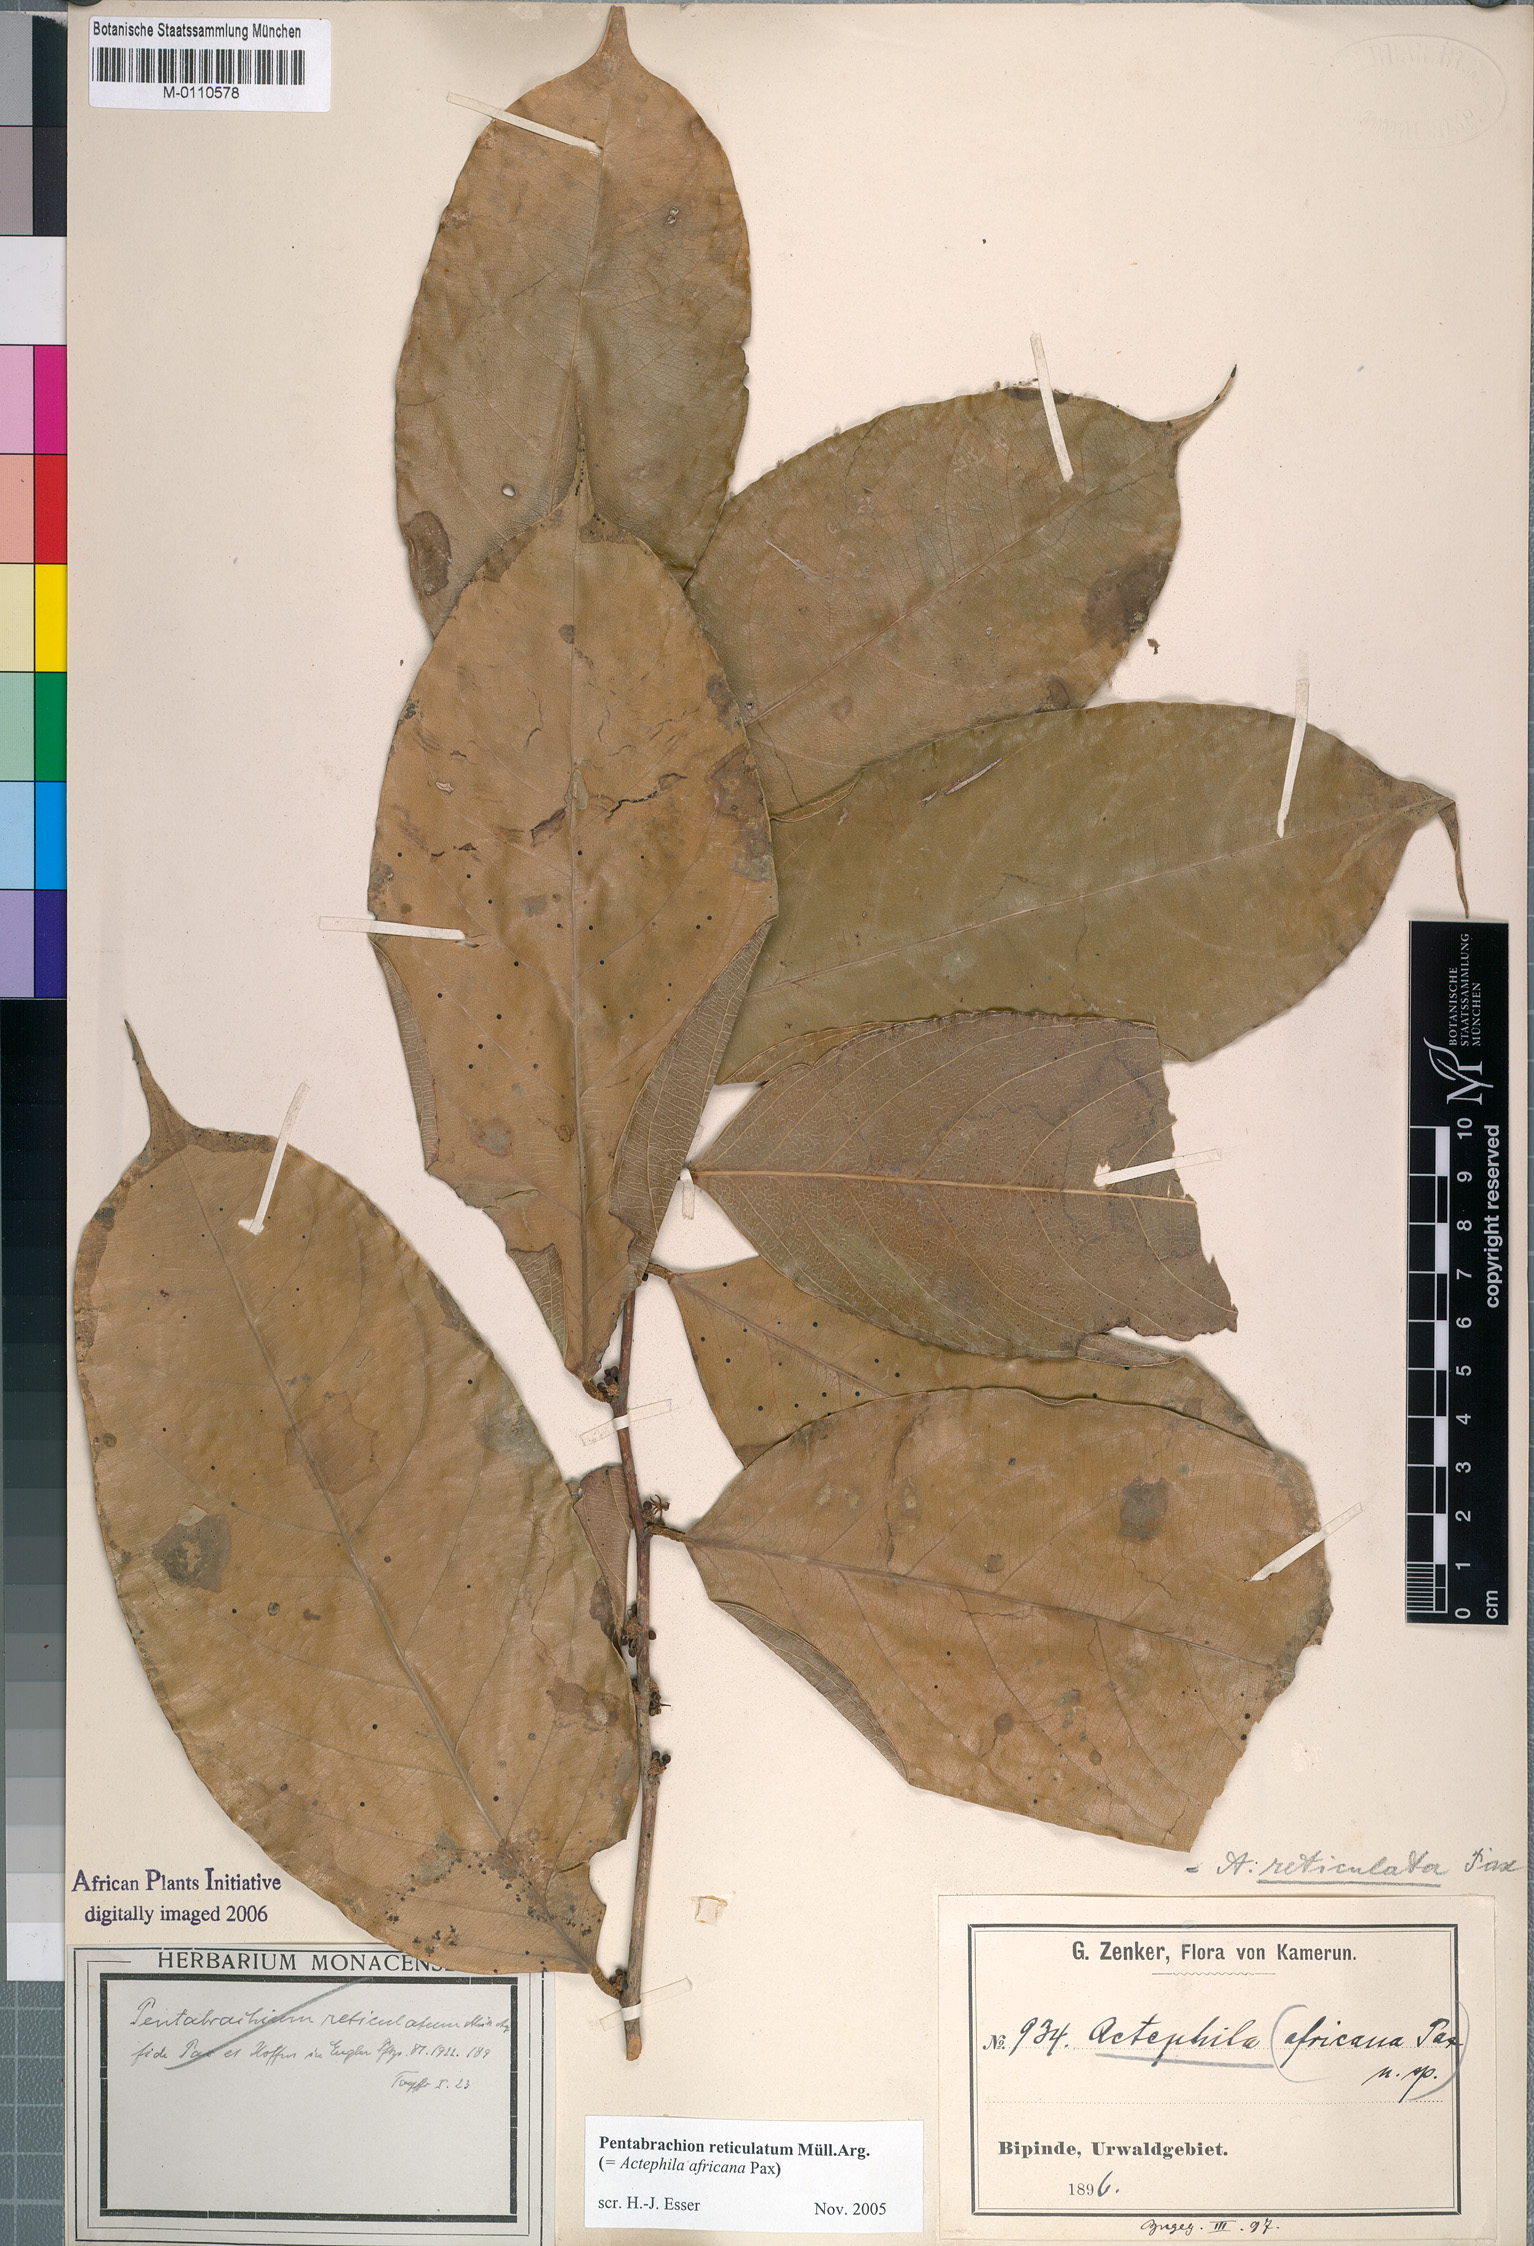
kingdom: Plantae
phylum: Tracheophyta
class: Magnoliopsida
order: Malpighiales
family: Phyllanthaceae
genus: Pentabrachion
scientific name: Pentabrachion reticulatum
